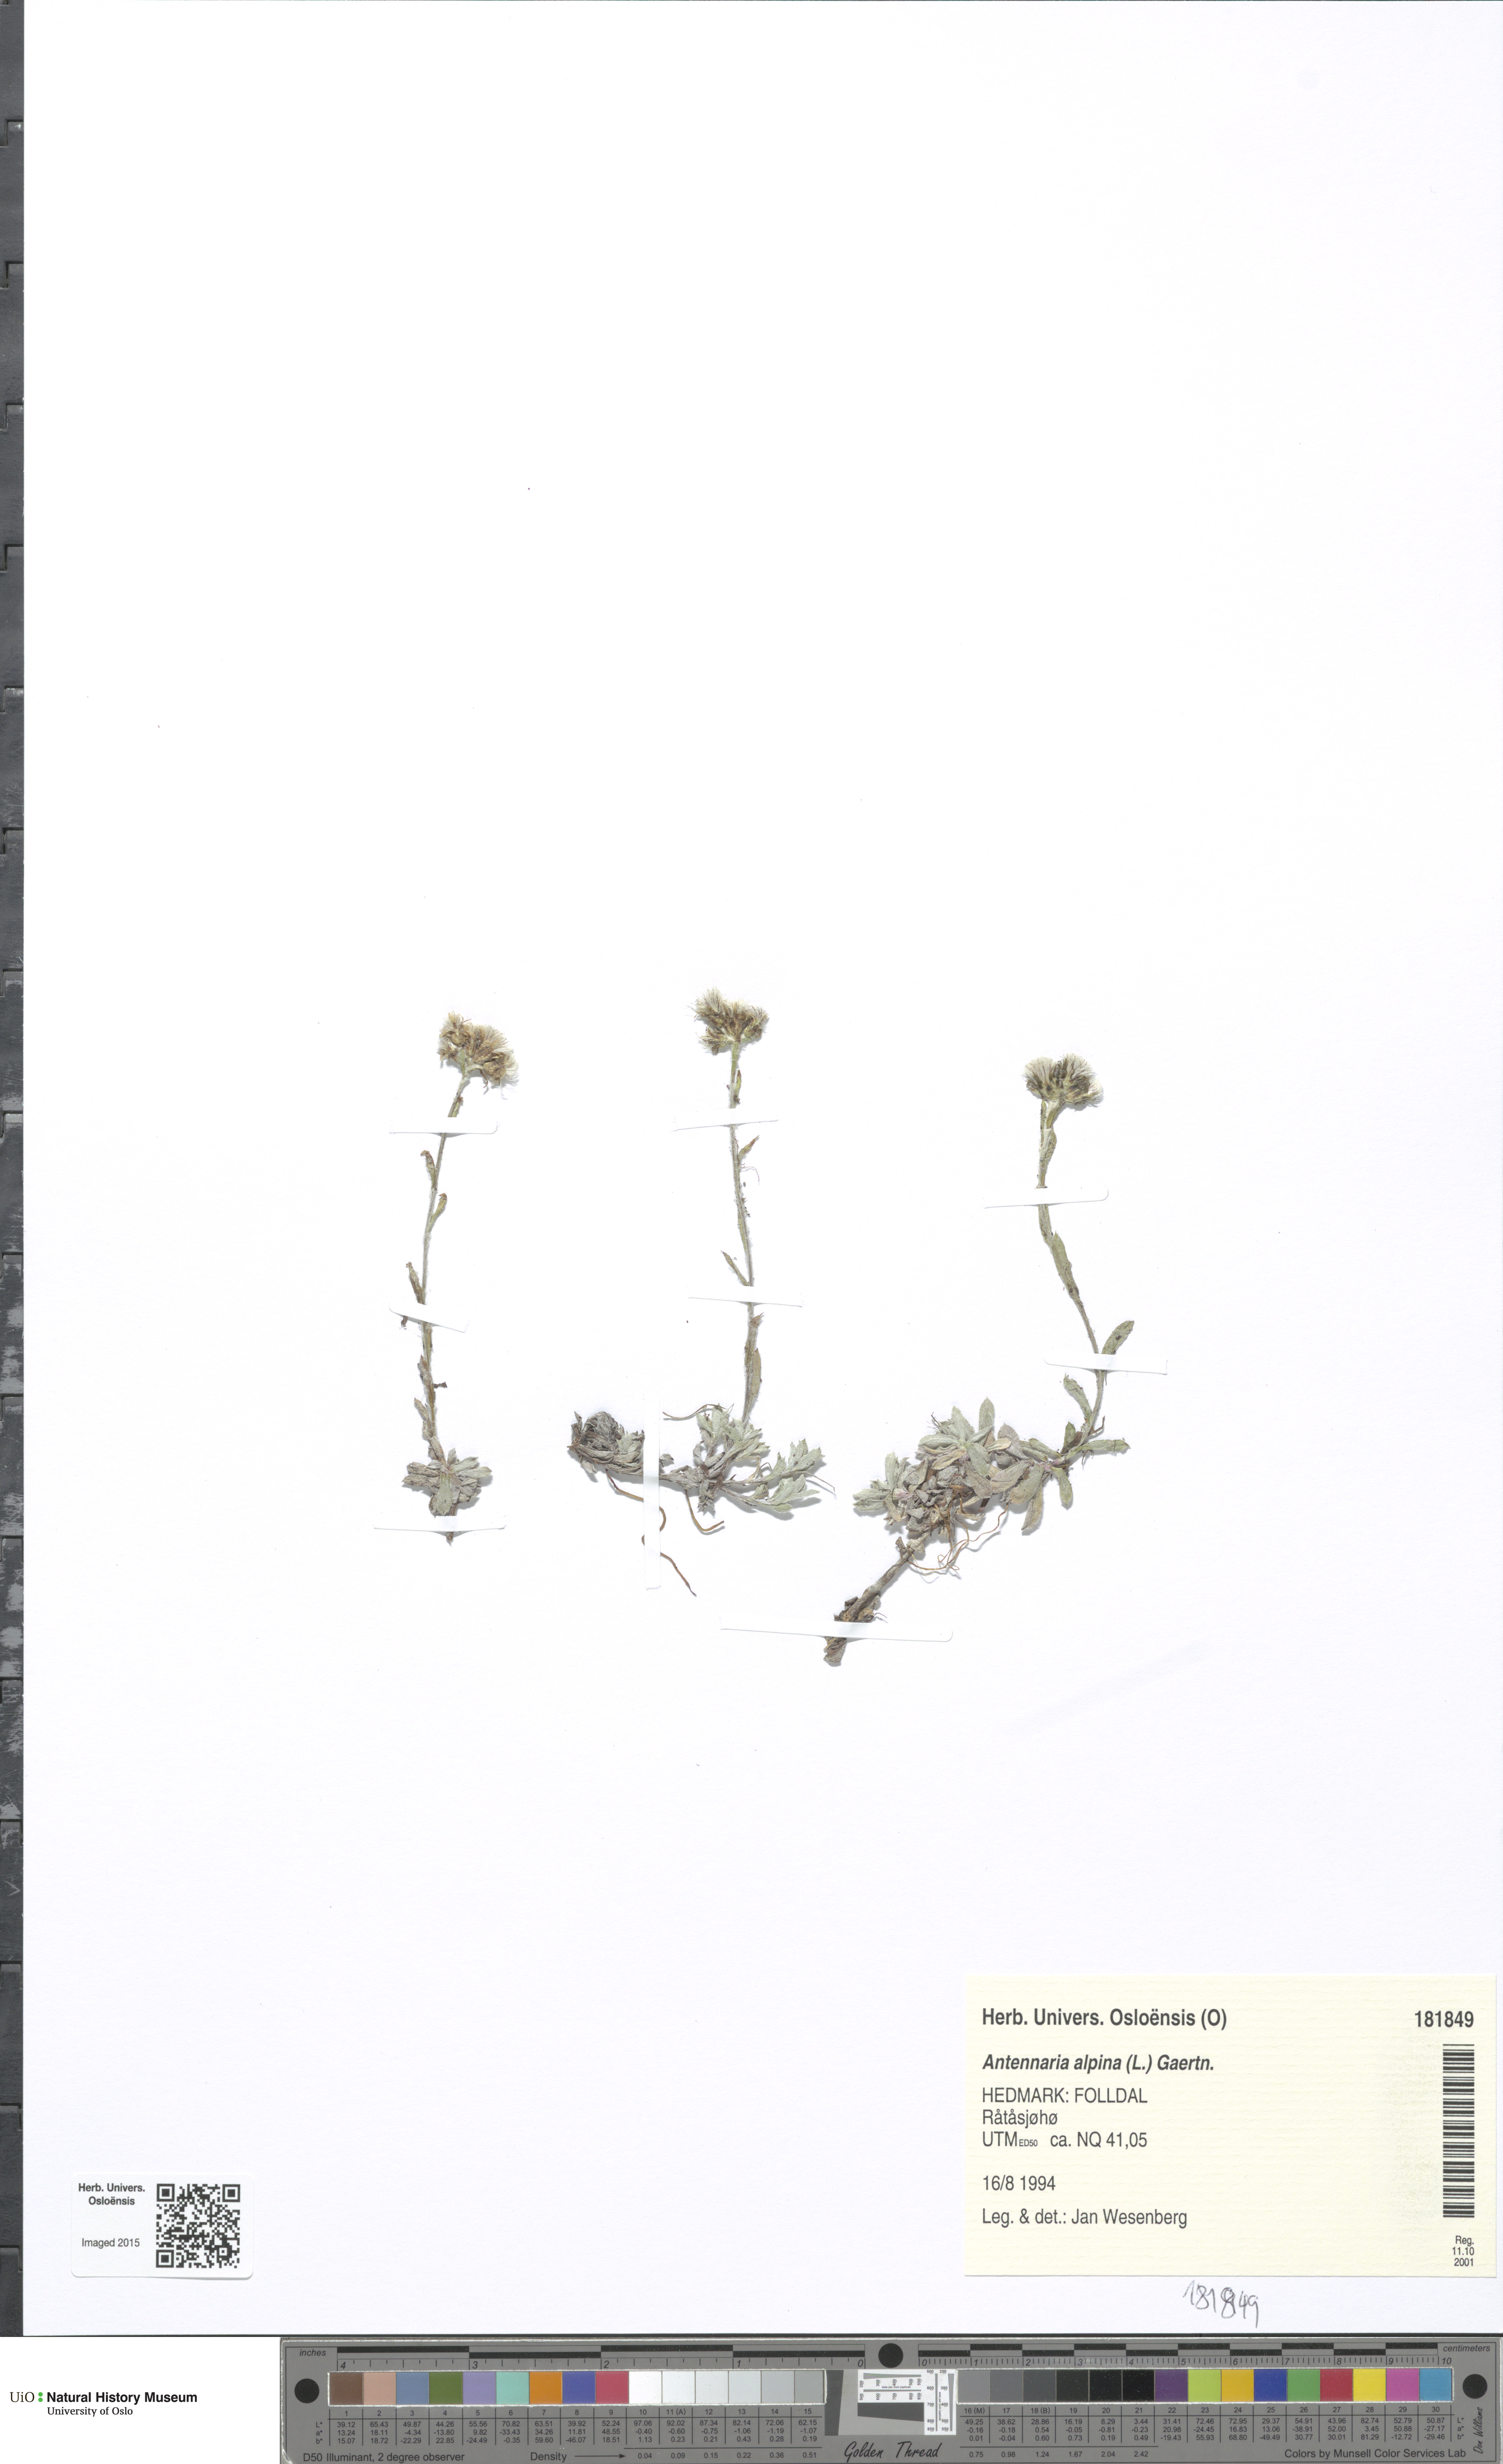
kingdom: Plantae
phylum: Tracheophyta
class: Magnoliopsida
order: Asterales
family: Asteraceae
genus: Antennaria
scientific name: Antennaria alpina
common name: Alpine pussytoes
